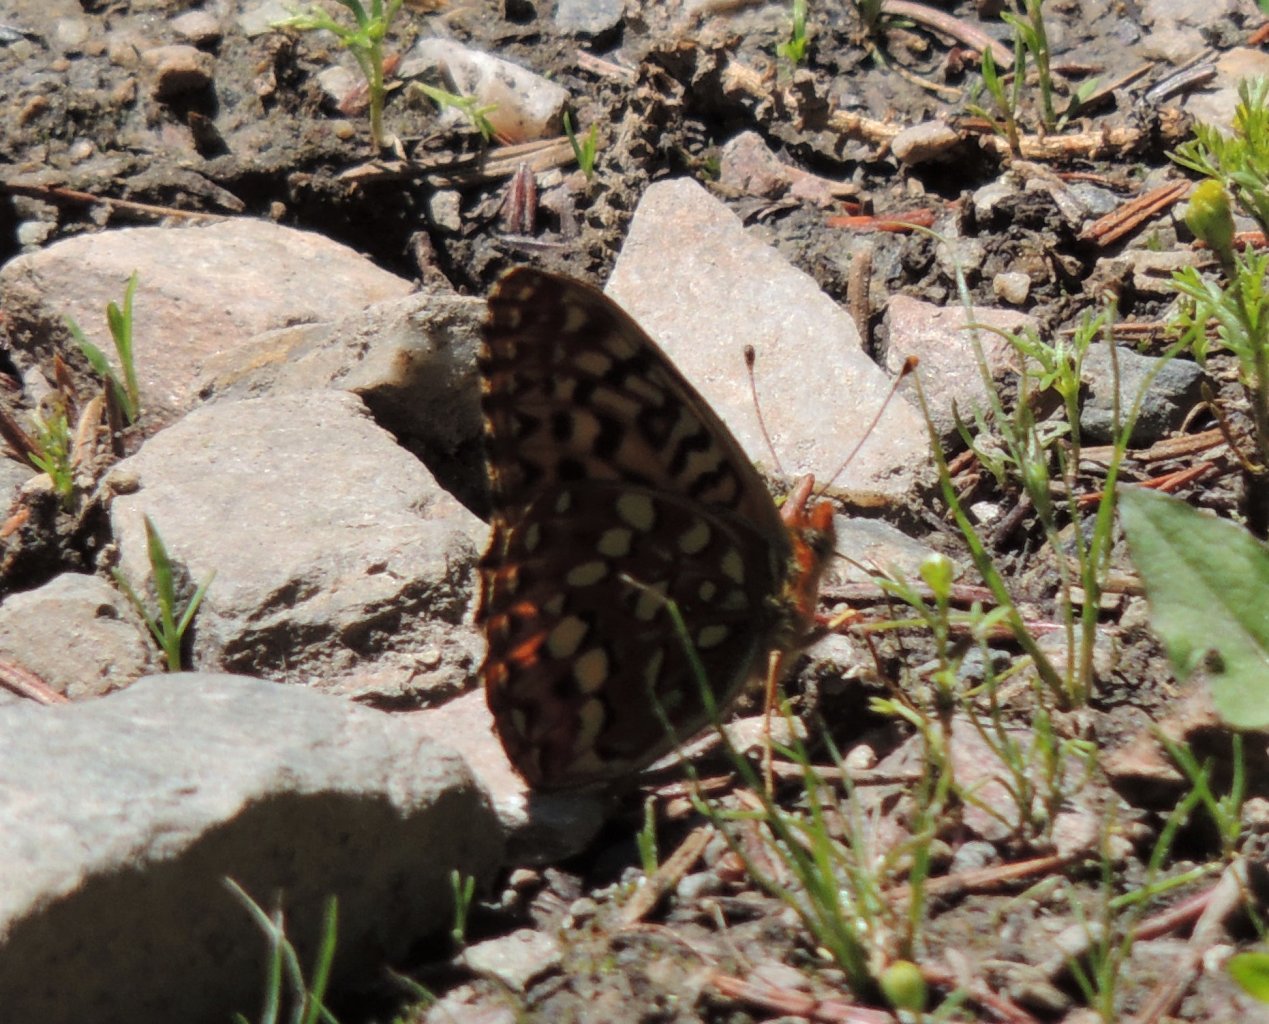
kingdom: Animalia
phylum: Arthropoda
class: Insecta
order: Lepidoptera
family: Nymphalidae
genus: Speyeria
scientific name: Speyeria
